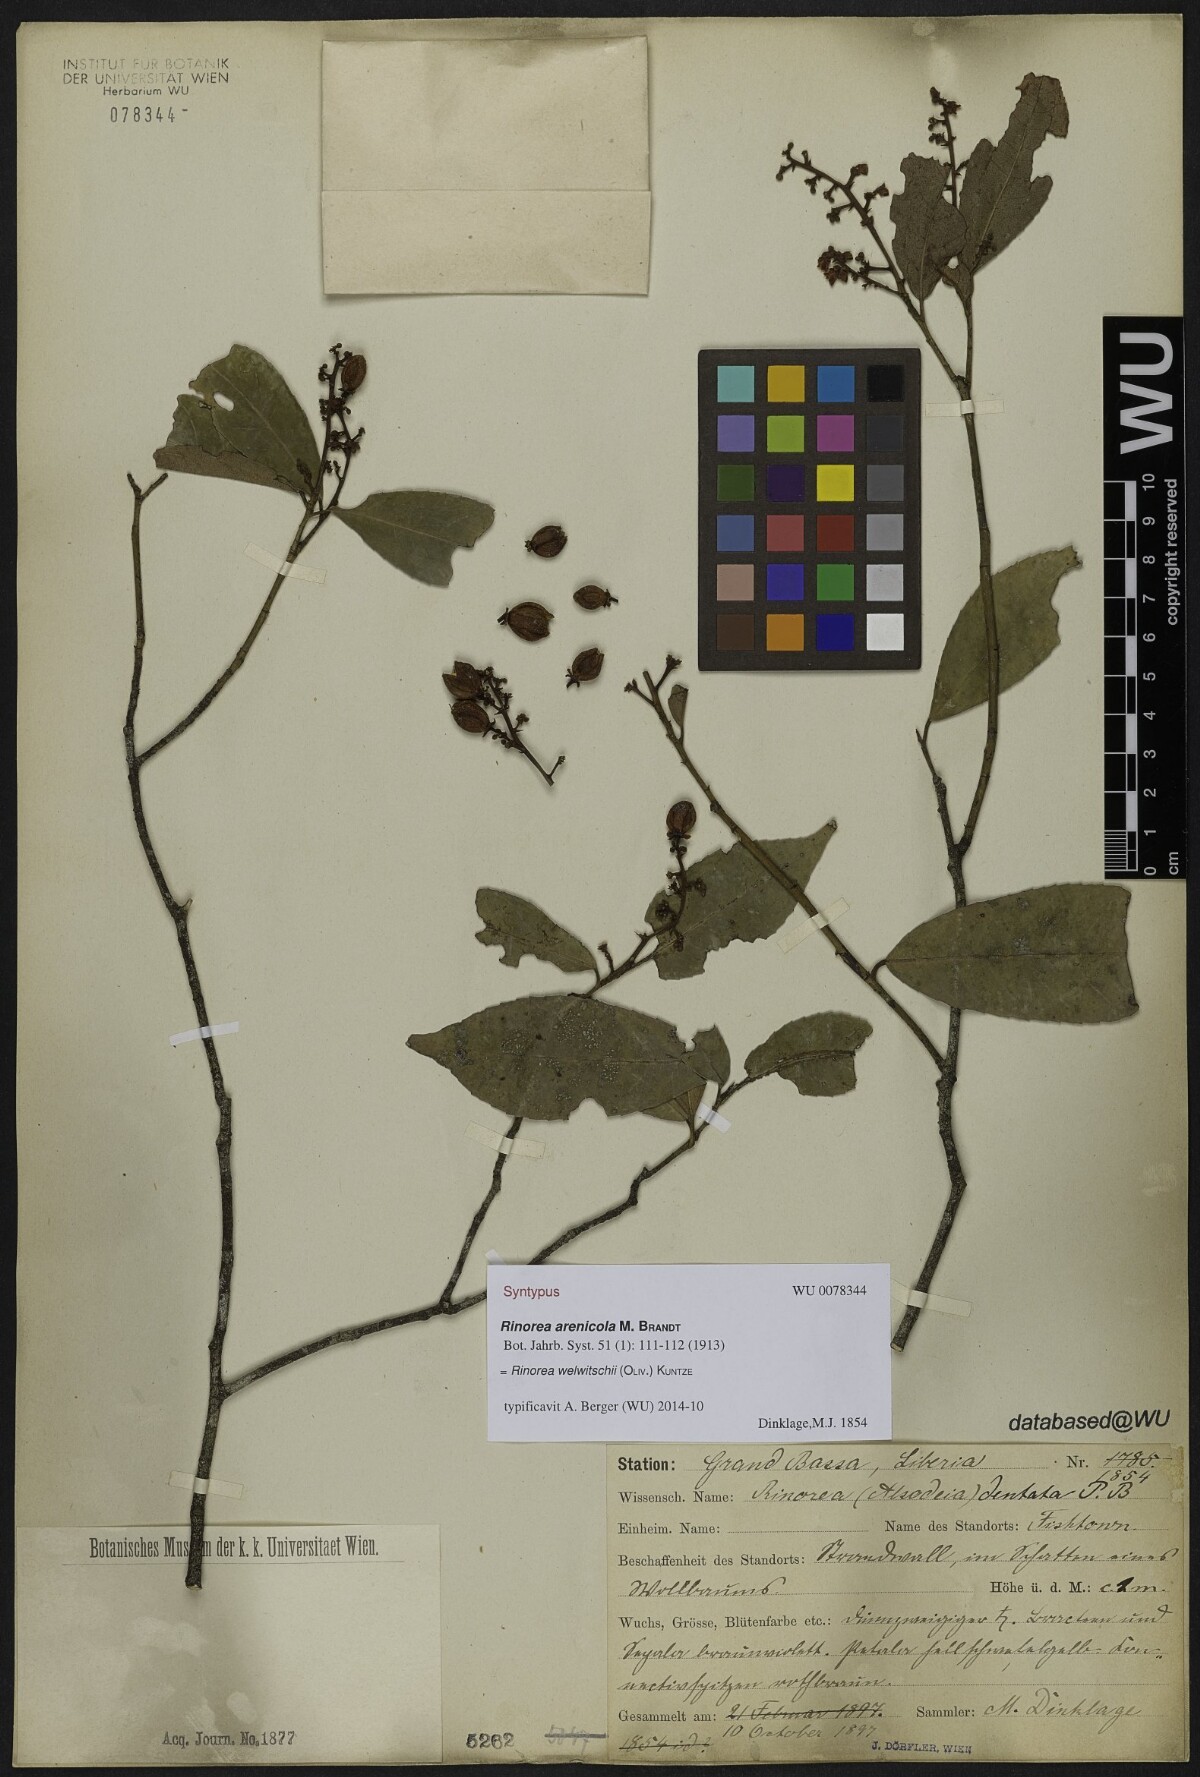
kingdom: Plantae
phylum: Tracheophyta
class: Magnoliopsida
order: Malpighiales
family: Violaceae
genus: Rinorea
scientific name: Rinorea welwitschii
